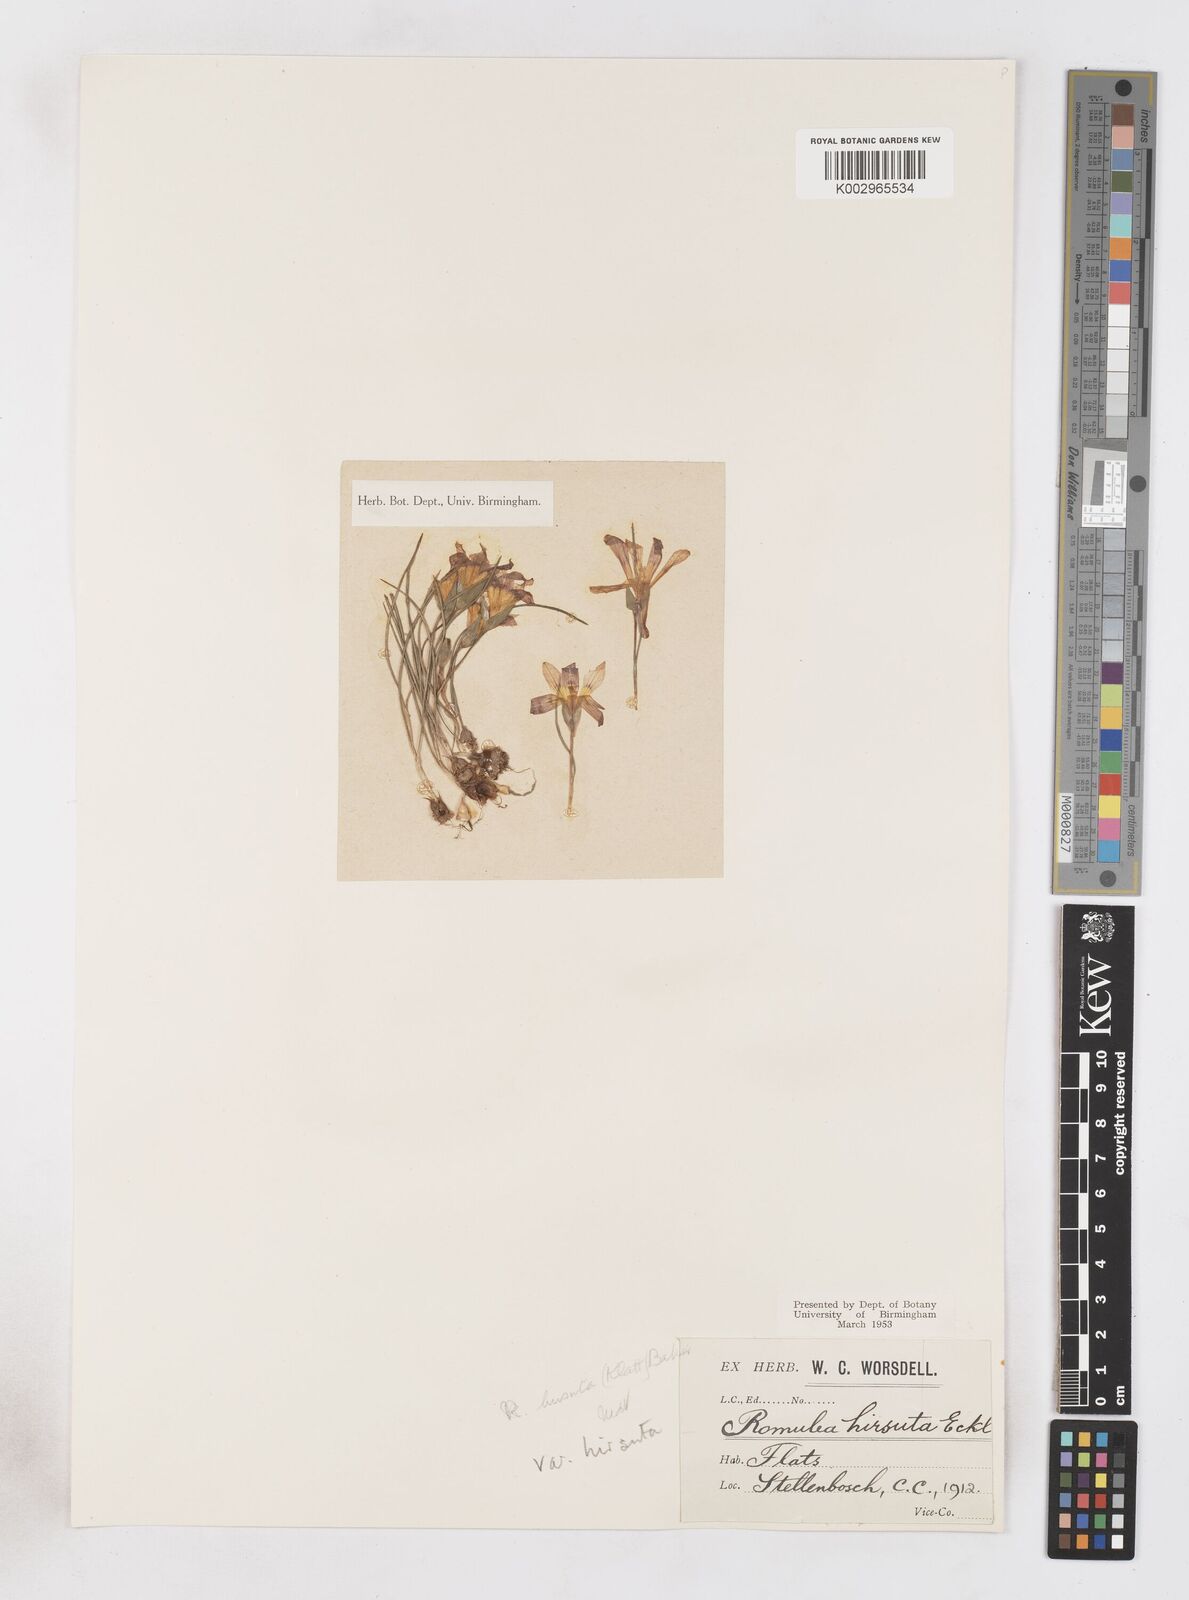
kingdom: Plantae
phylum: Tracheophyta
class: Liliopsida
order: Asparagales
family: Iridaceae
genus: Romulea
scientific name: Romulea hirsuta
